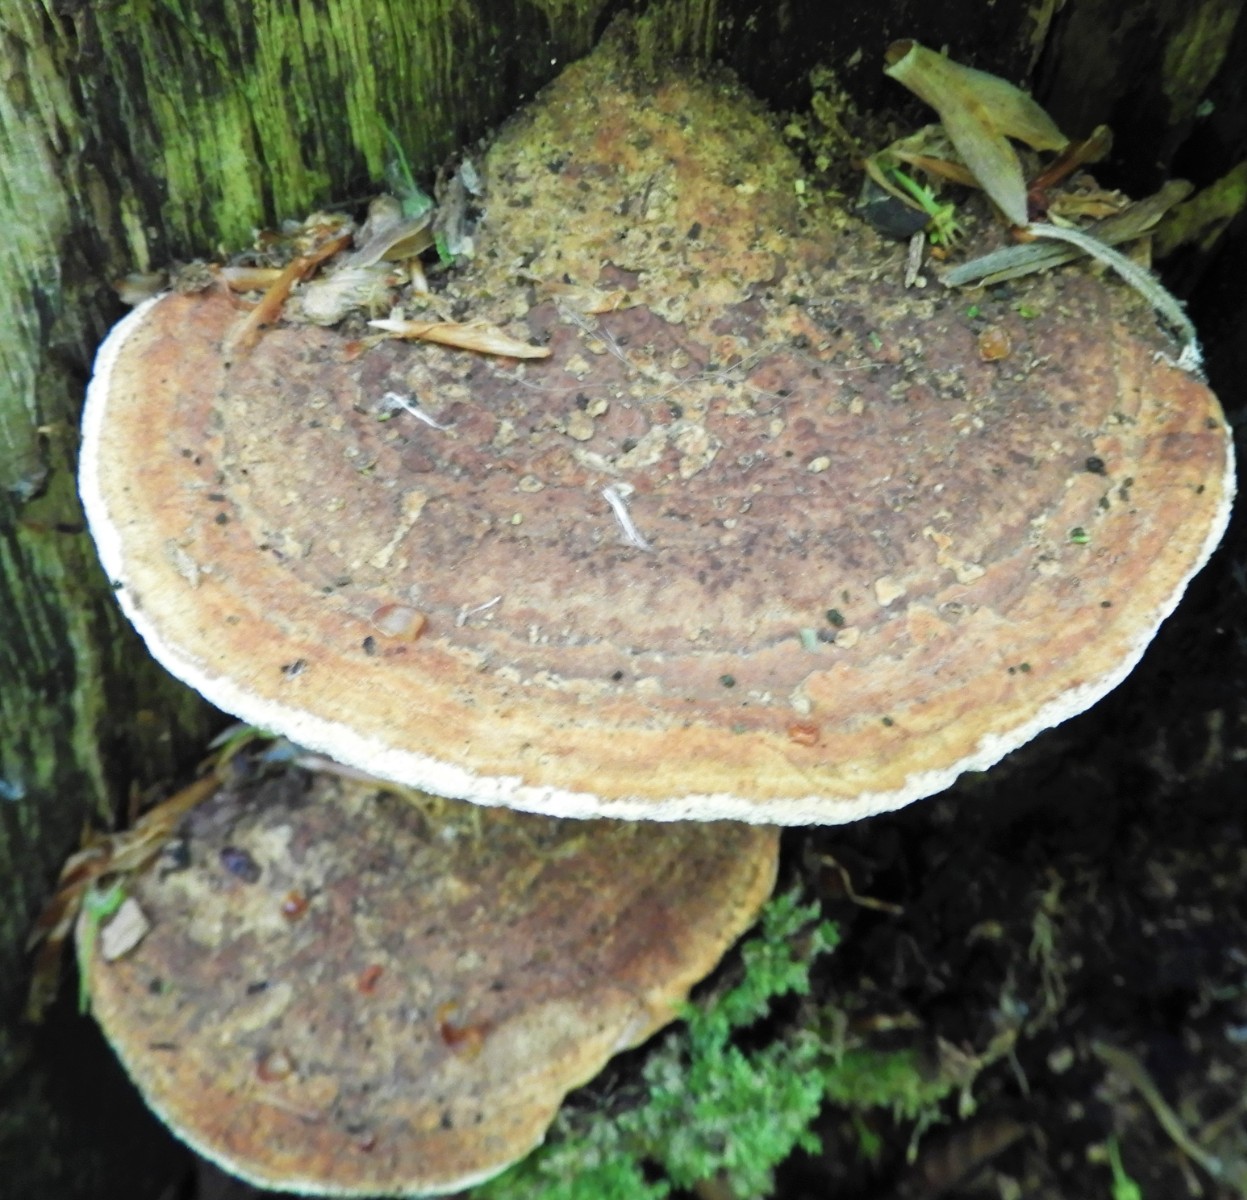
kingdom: Fungi
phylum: Basidiomycota
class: Agaricomycetes
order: Polyporales
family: Fomitopsidaceae
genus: Daedalea
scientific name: Daedalea quercina
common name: ege-labyrintsvamp
